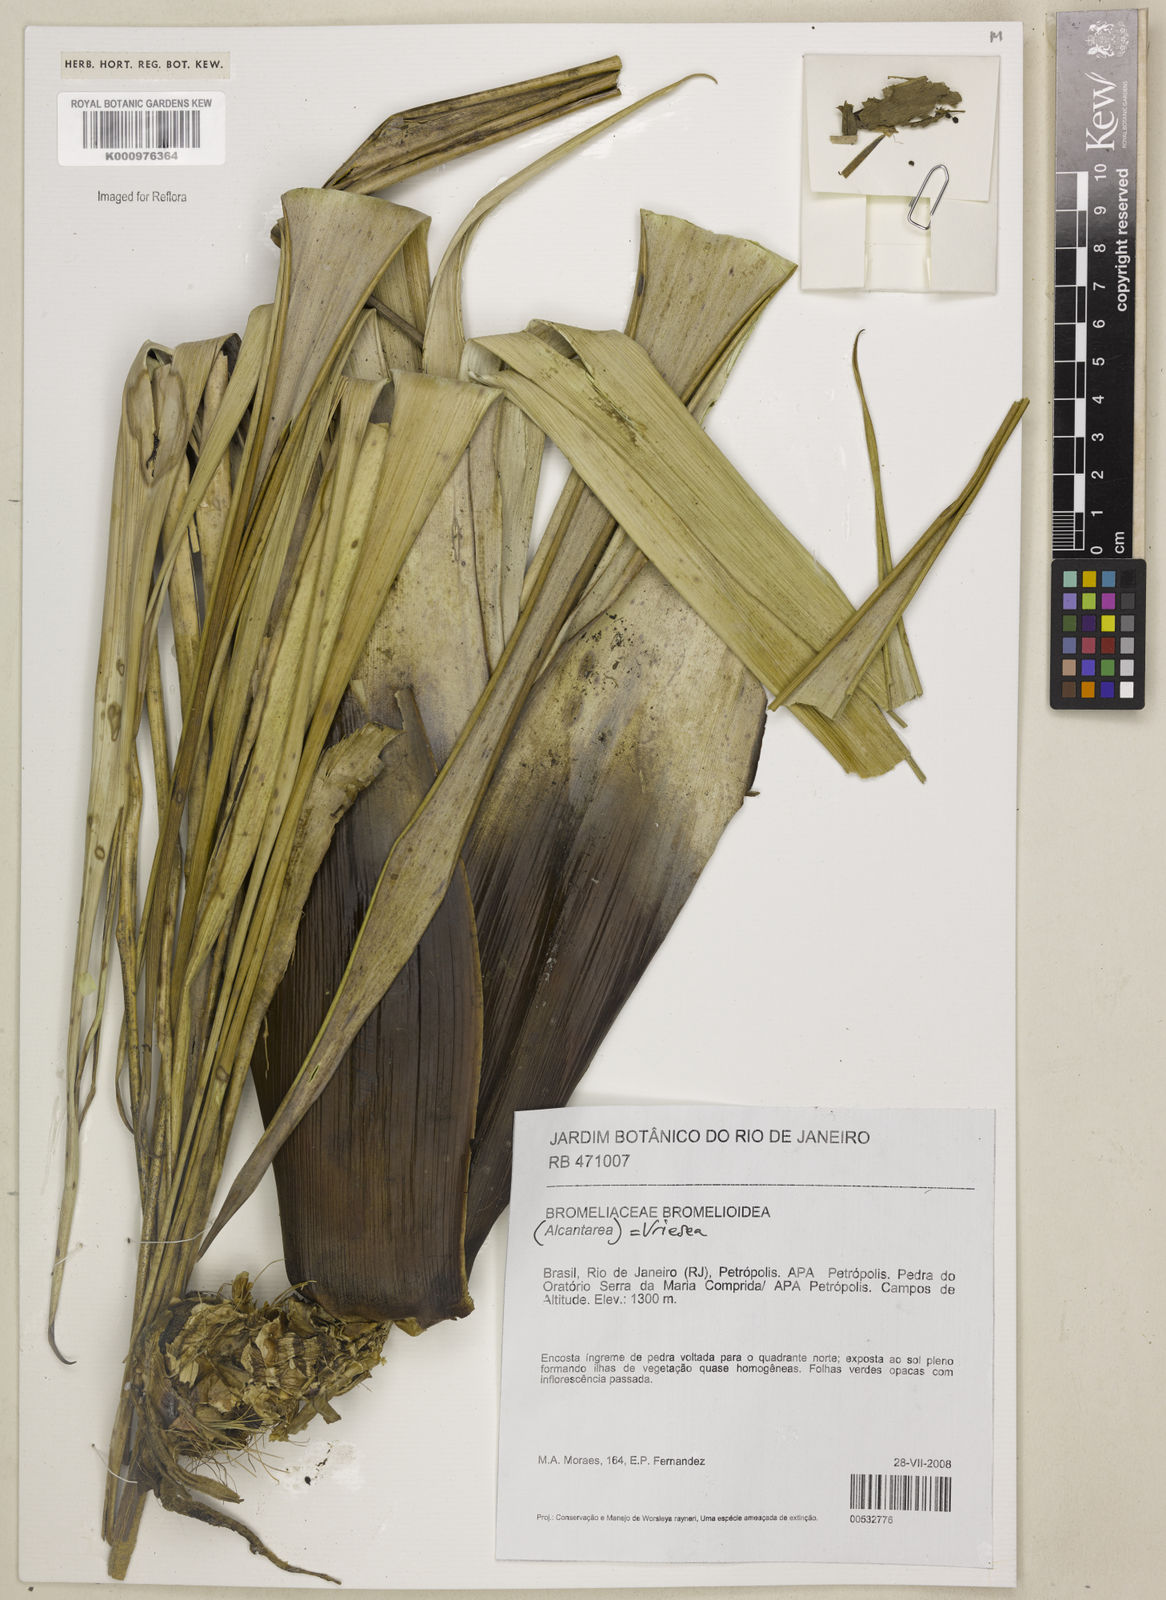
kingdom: Plantae
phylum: Tracheophyta
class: Liliopsida
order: Poales
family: Bromeliaceae
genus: Vriesea
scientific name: Vriesea
